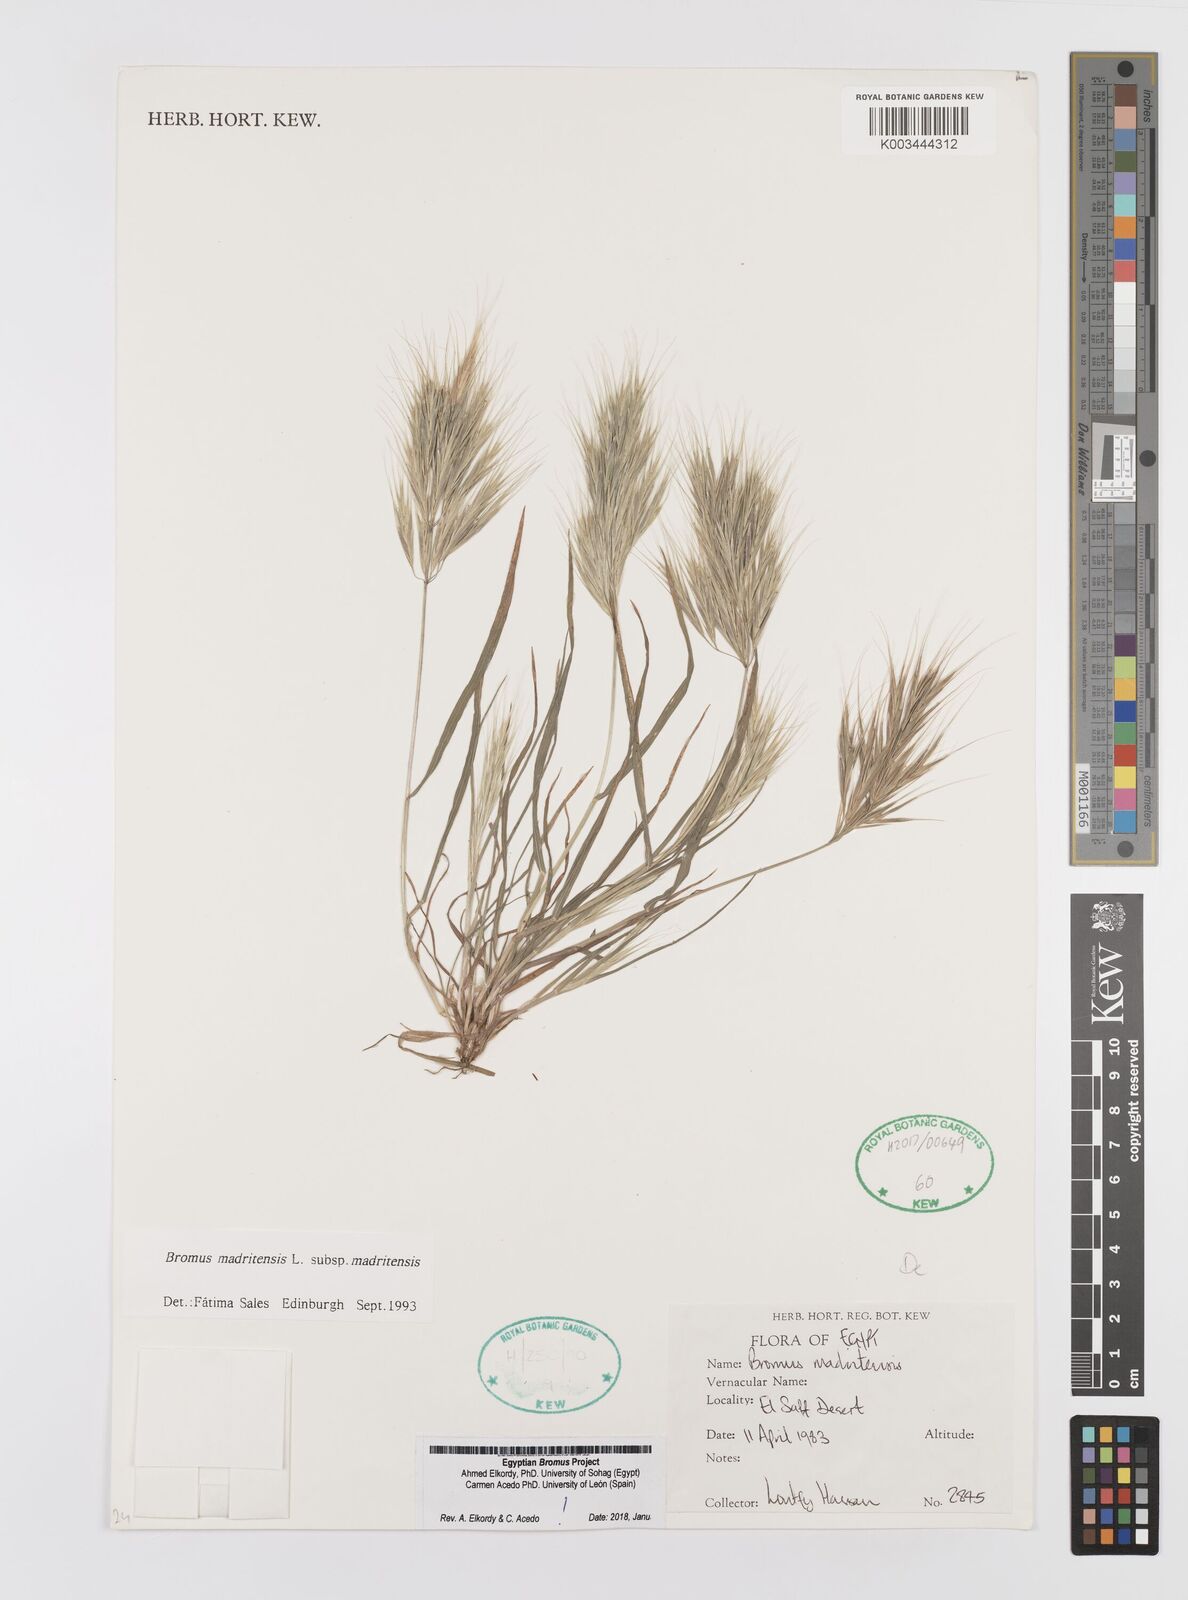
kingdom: Plantae
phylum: Tracheophyta
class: Liliopsida
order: Poales
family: Poaceae
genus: Bromus
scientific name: Bromus madritensis
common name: Compact brome
